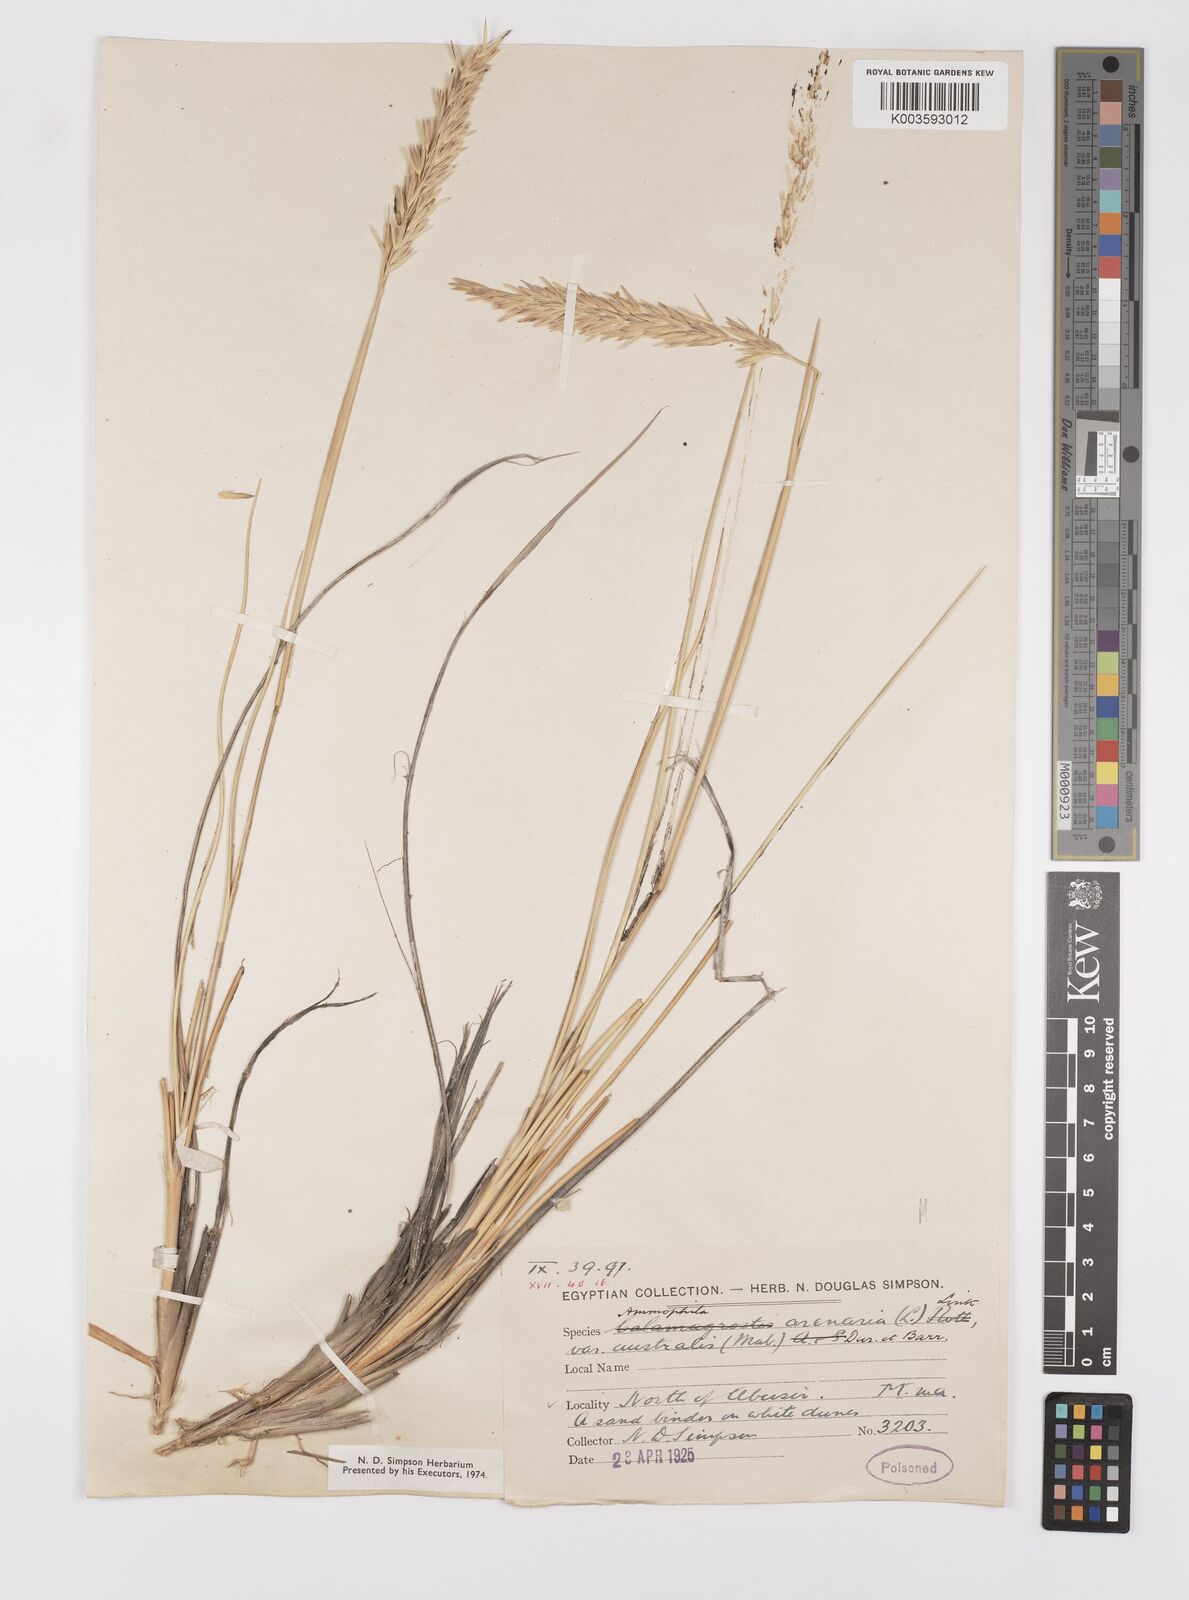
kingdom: Plantae
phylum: Tracheophyta
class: Liliopsida
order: Poales
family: Poaceae
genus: Calamagrostis
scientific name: Calamagrostis arenaria
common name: European beachgrass
